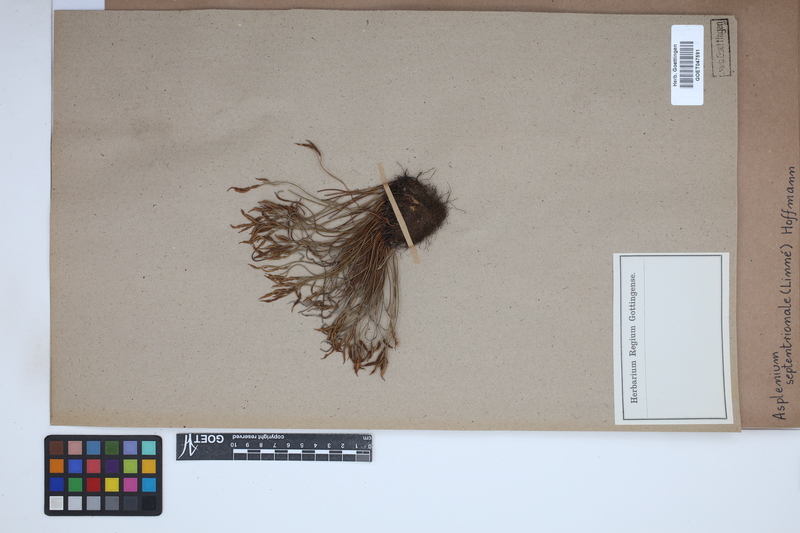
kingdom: Plantae
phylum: Tracheophyta
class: Polypodiopsida
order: Polypodiales
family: Aspleniaceae
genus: Asplenium
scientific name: Asplenium septentrionale
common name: Forked spleenwort
